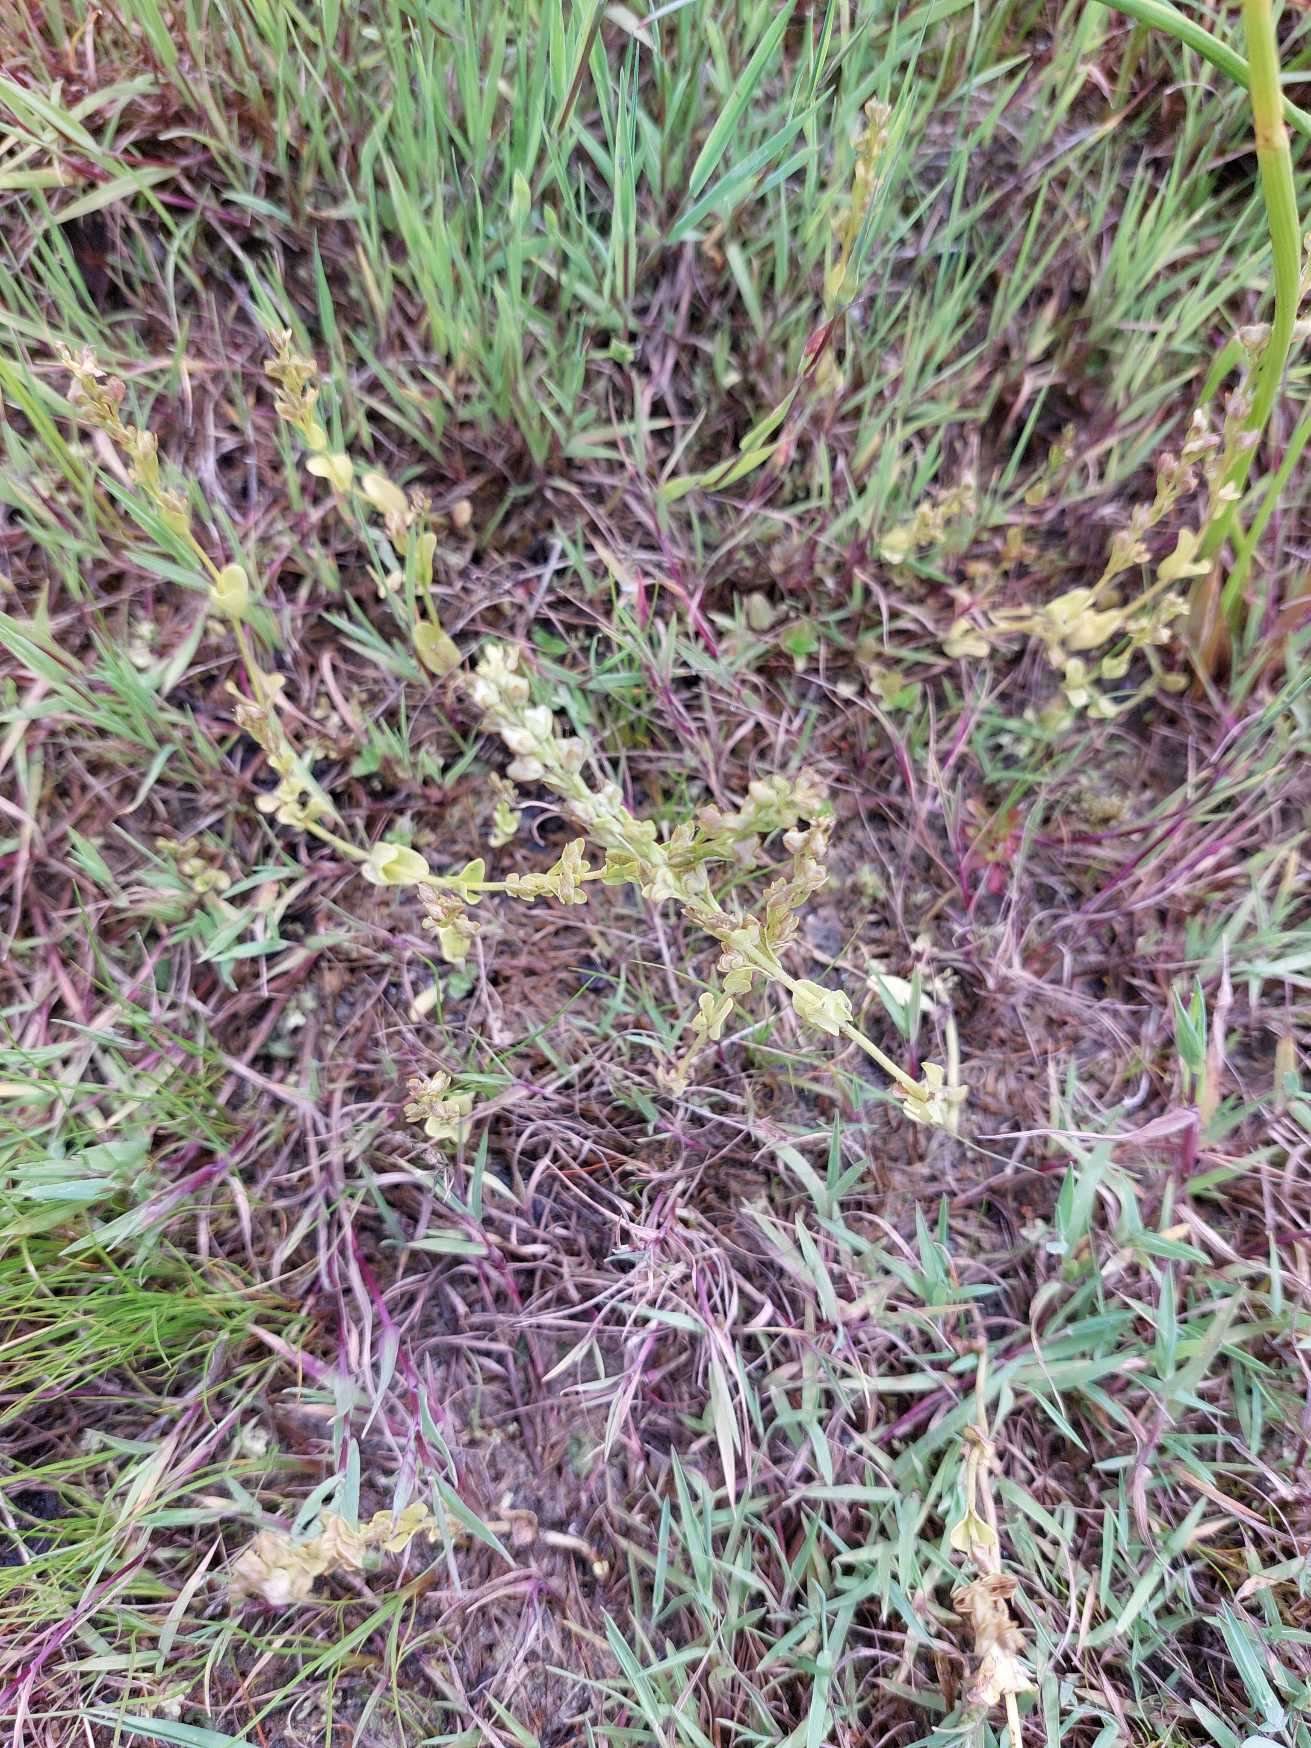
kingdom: Plantae
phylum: Tracheophyta
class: Magnoliopsida
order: Lamiales
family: Plantaginaceae
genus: Veronica
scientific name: Veronica serpyllifolia
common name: Glat ærenpris
